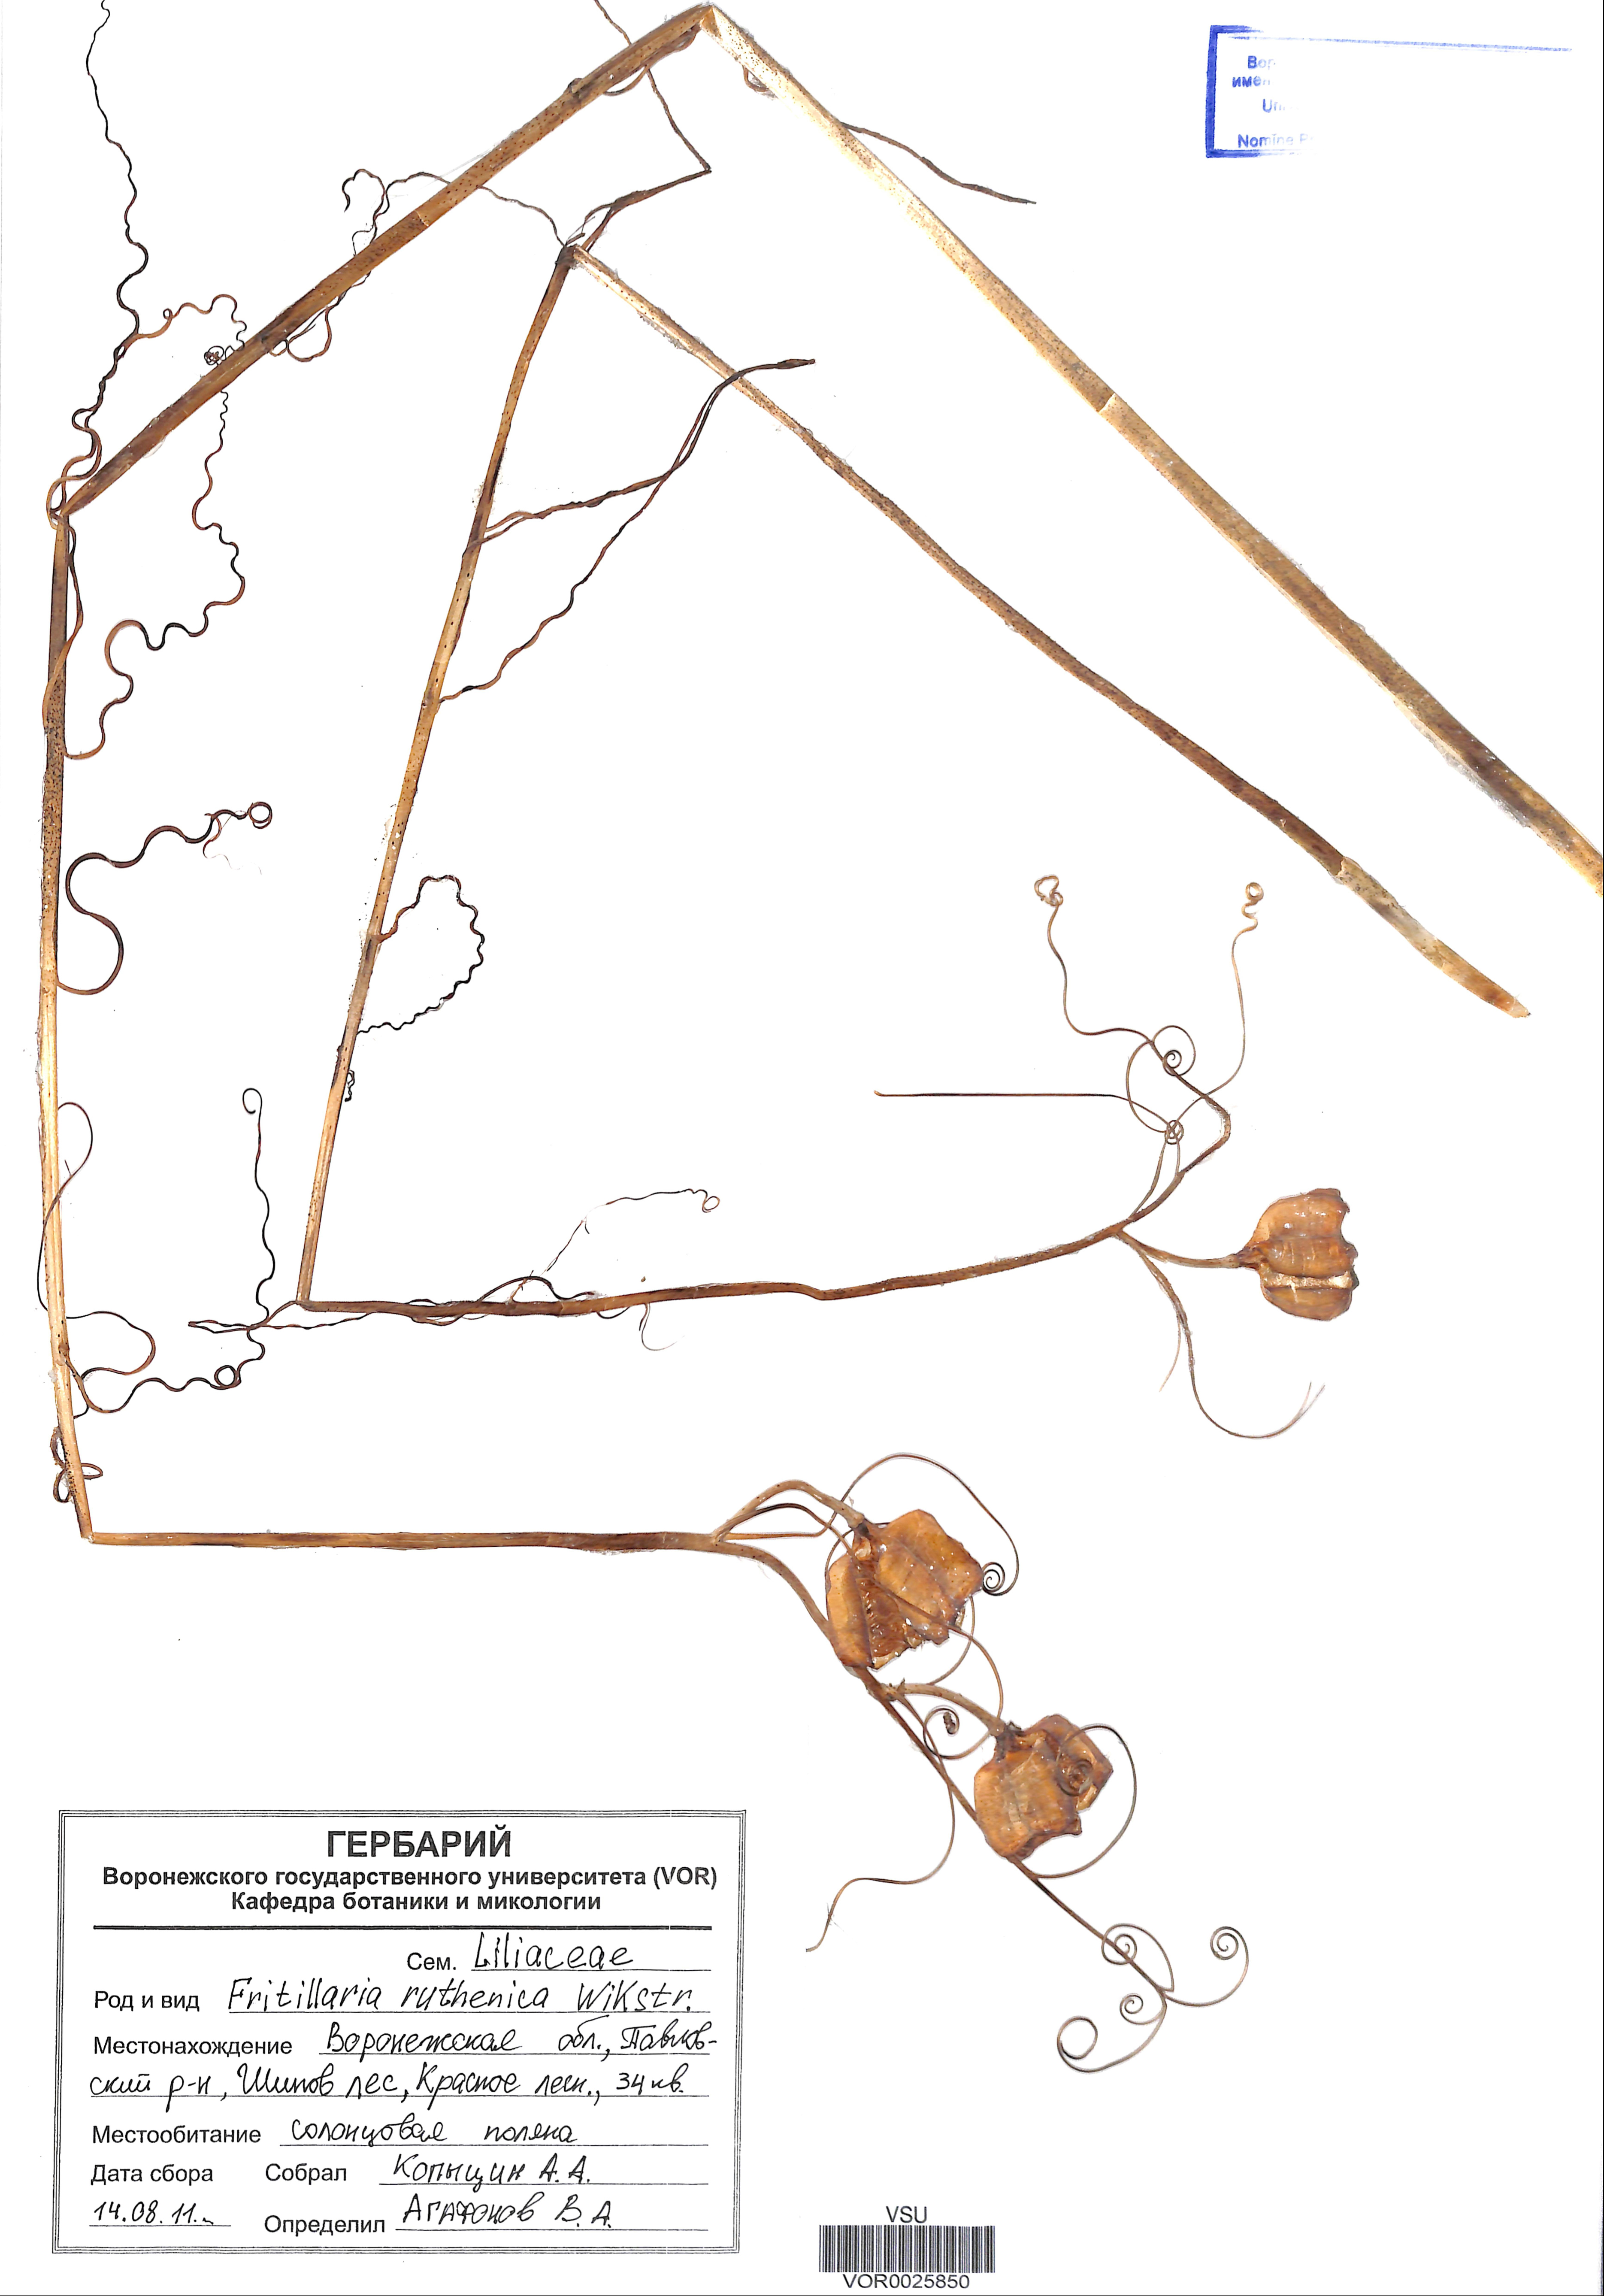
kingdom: Plantae
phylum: Tracheophyta
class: Liliopsida
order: Liliales
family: Liliaceae
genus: Fritillaria
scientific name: Fritillaria ruthenica
